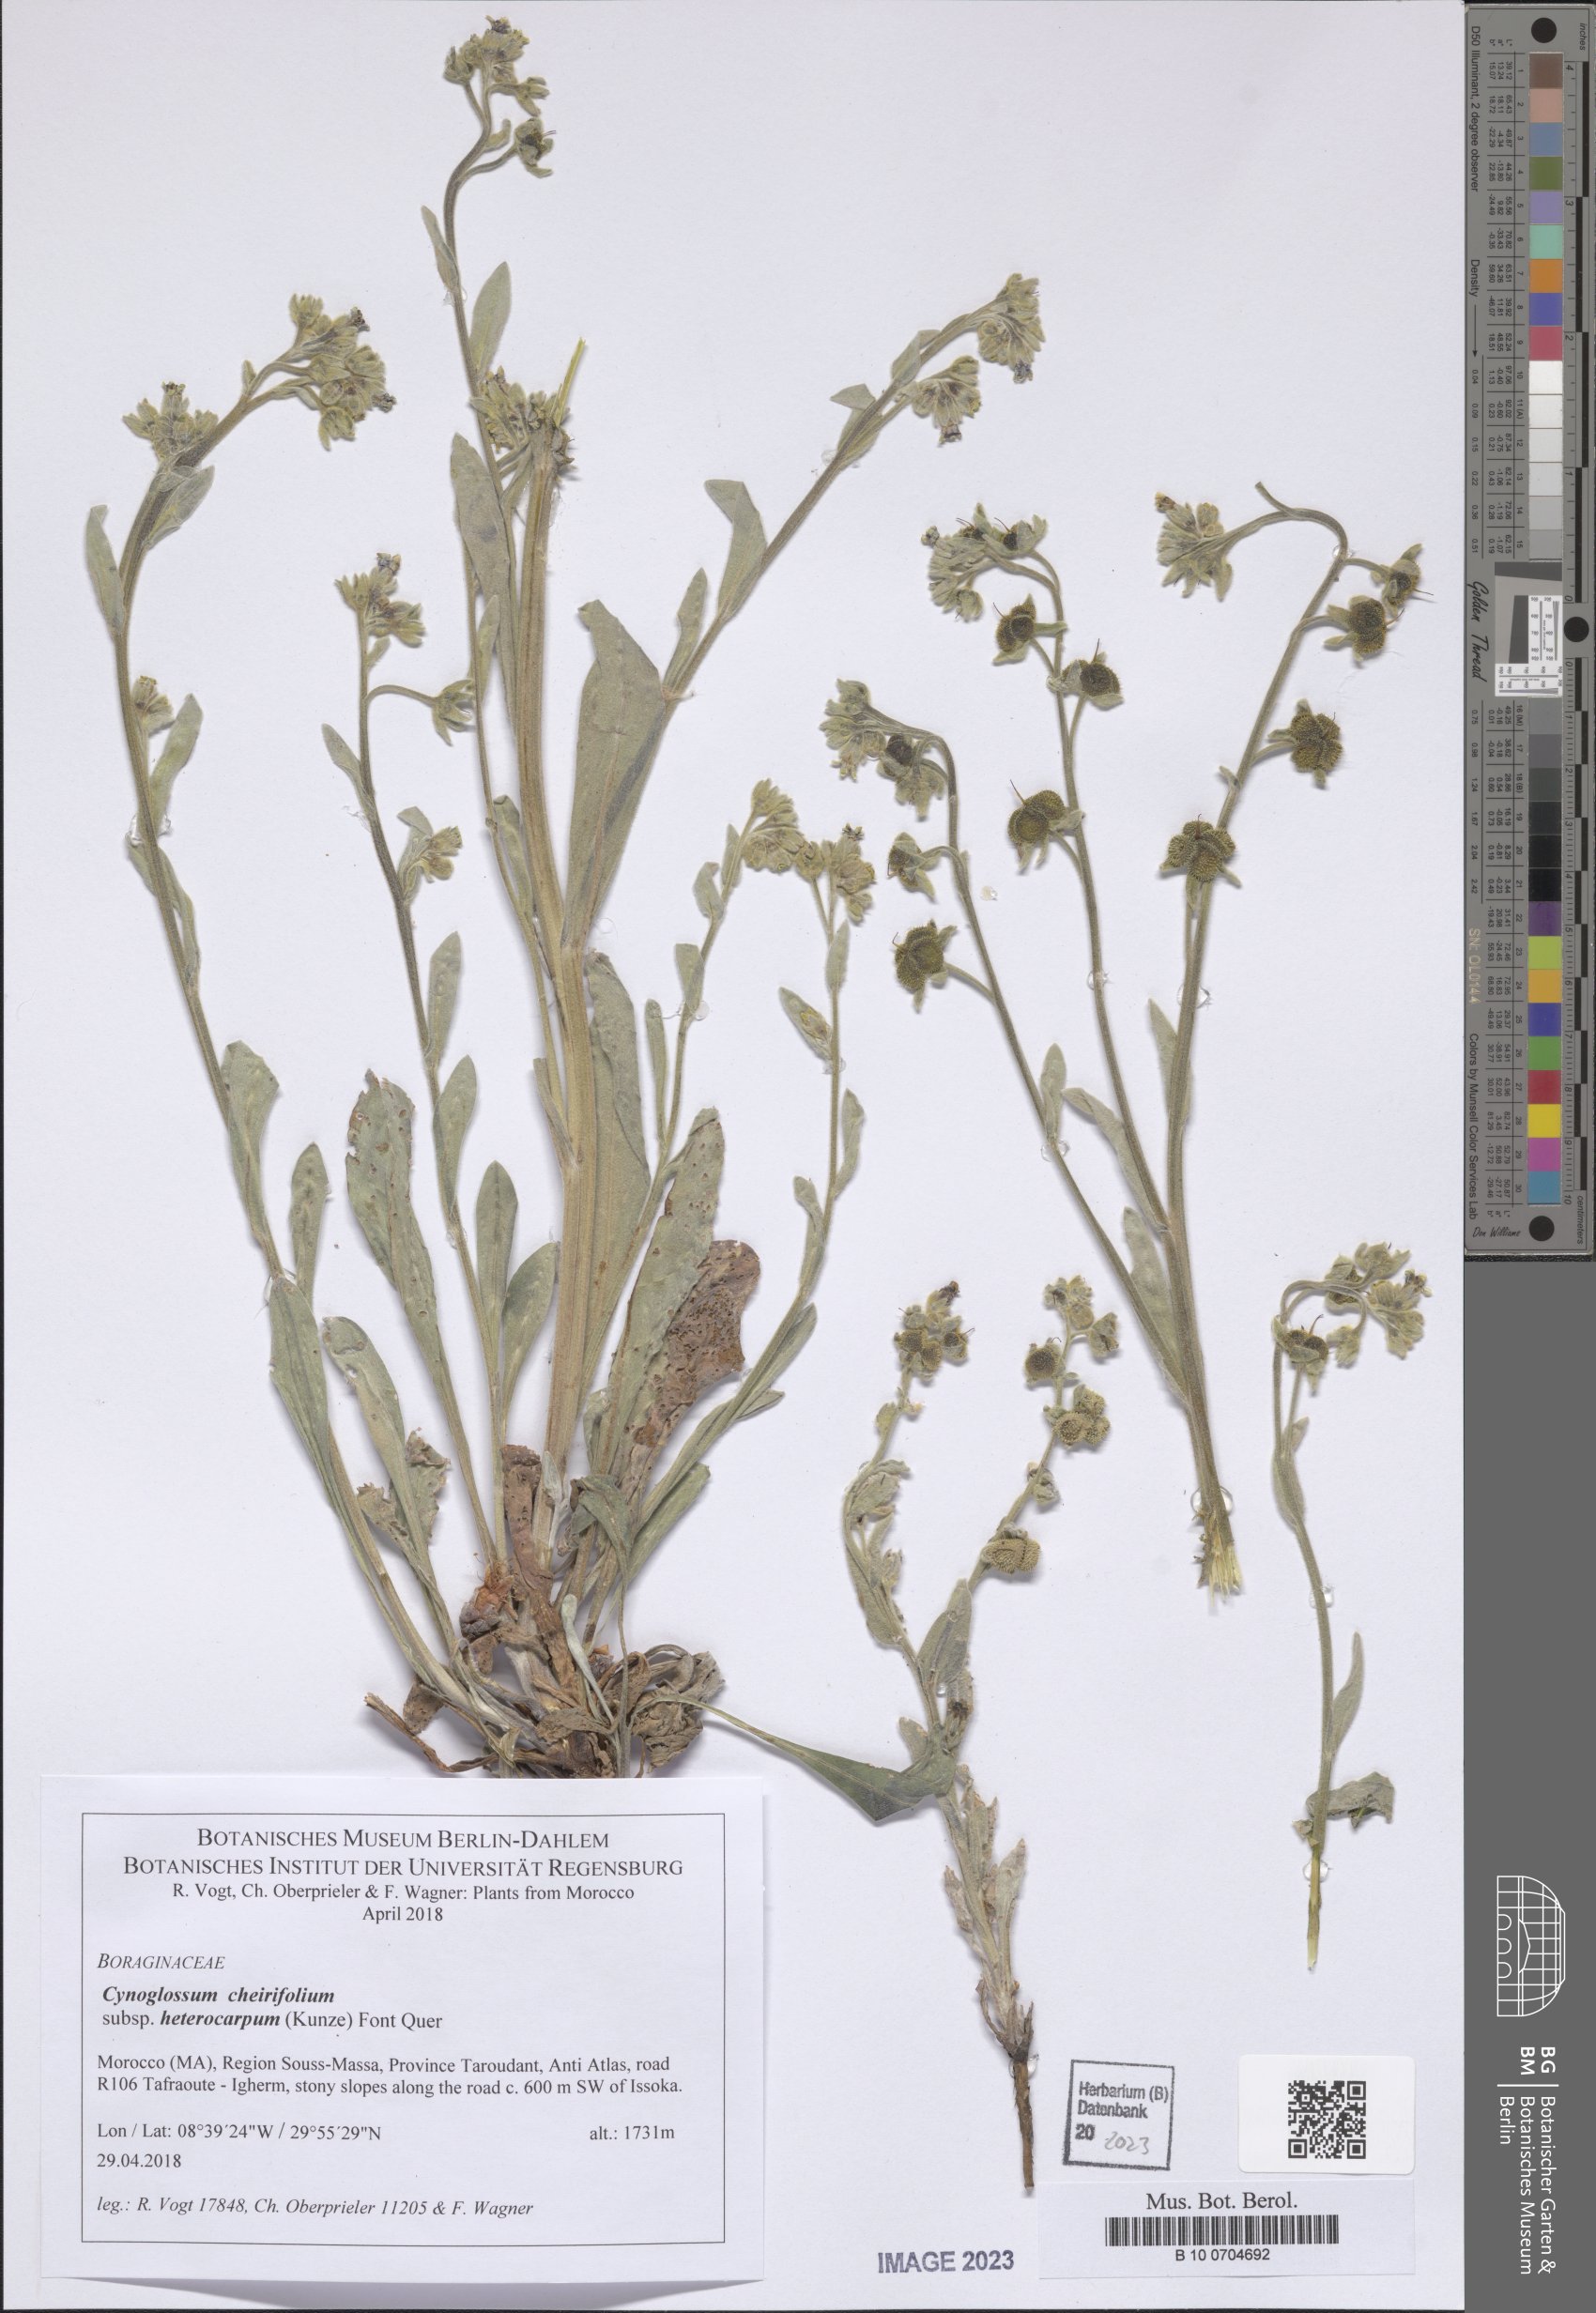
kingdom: Plantae
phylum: Tracheophyta
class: Magnoliopsida
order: Boraginales
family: Boraginaceae
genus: Pardoglossum
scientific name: Pardoglossum cheirifolium
